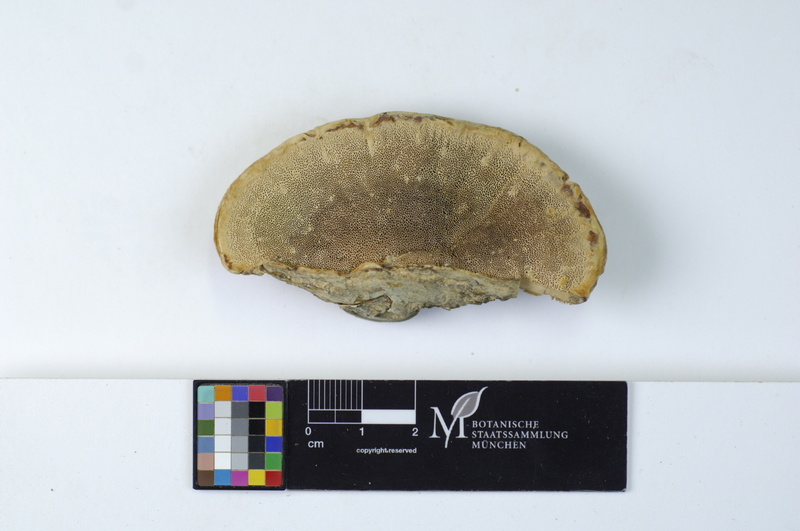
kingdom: Plantae
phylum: Tracheophyta
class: Magnoliopsida
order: Fagales
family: Betulaceae
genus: Betula
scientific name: Betula
